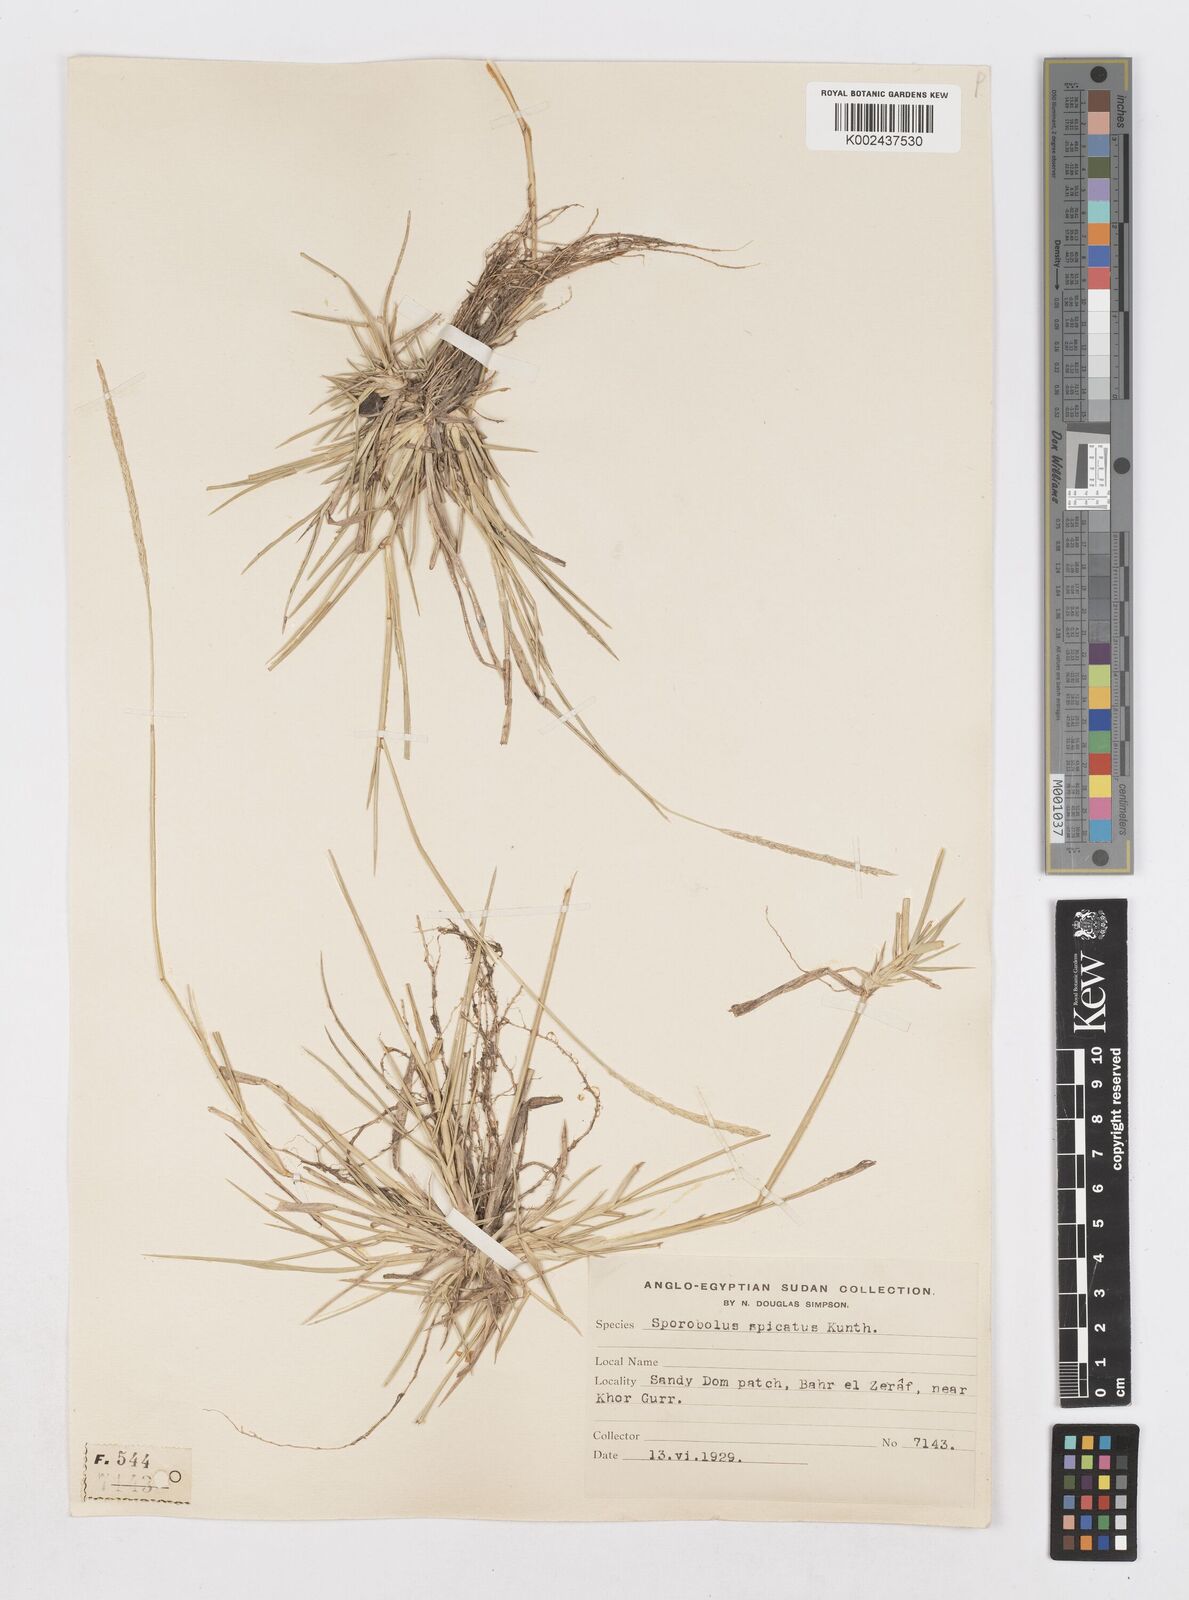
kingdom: Plantae
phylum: Tracheophyta
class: Liliopsida
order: Poales
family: Poaceae
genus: Sporobolus
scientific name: Sporobolus spicatus
